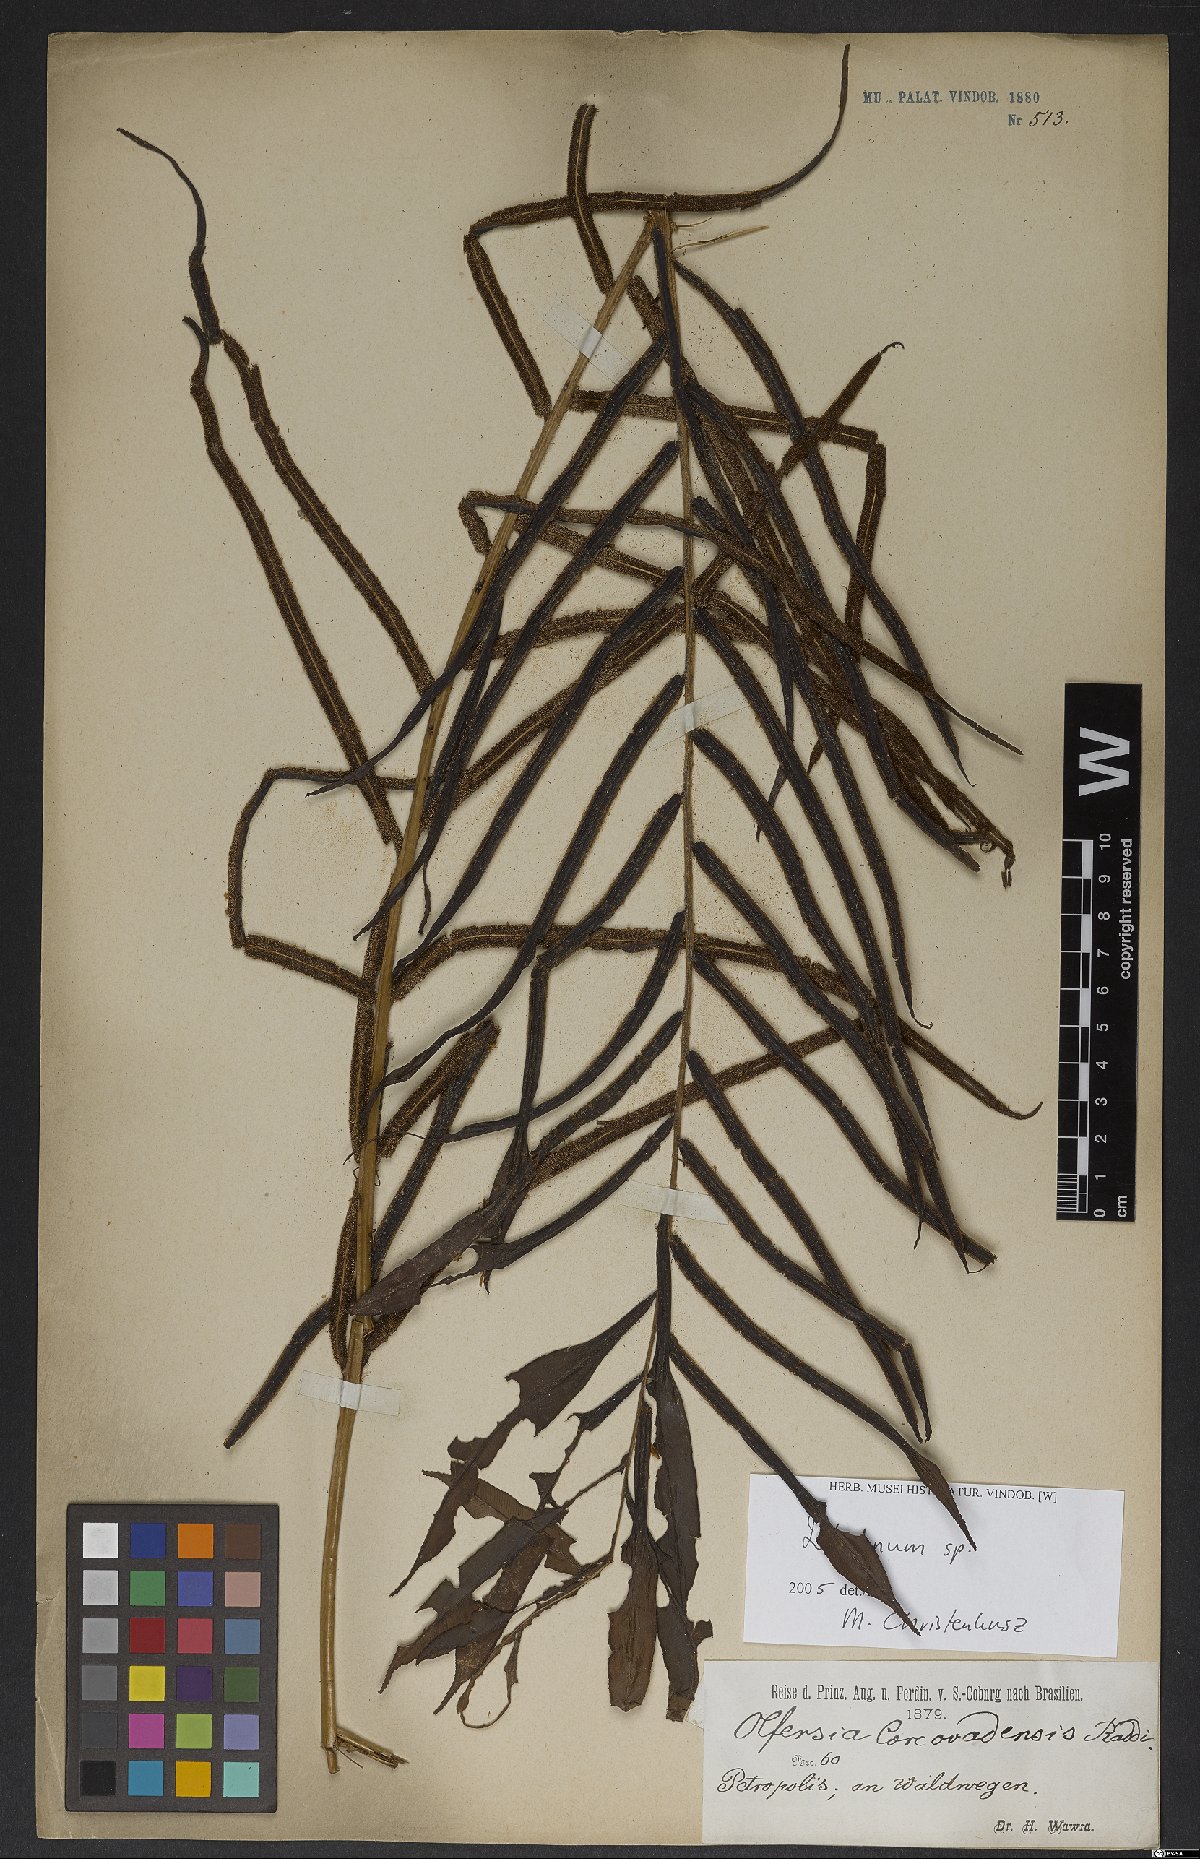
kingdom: Plantae
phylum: Tracheophyta
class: Polypodiopsida
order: Polypodiales
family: Blechnaceae
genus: Blechnum
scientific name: Blechnum
